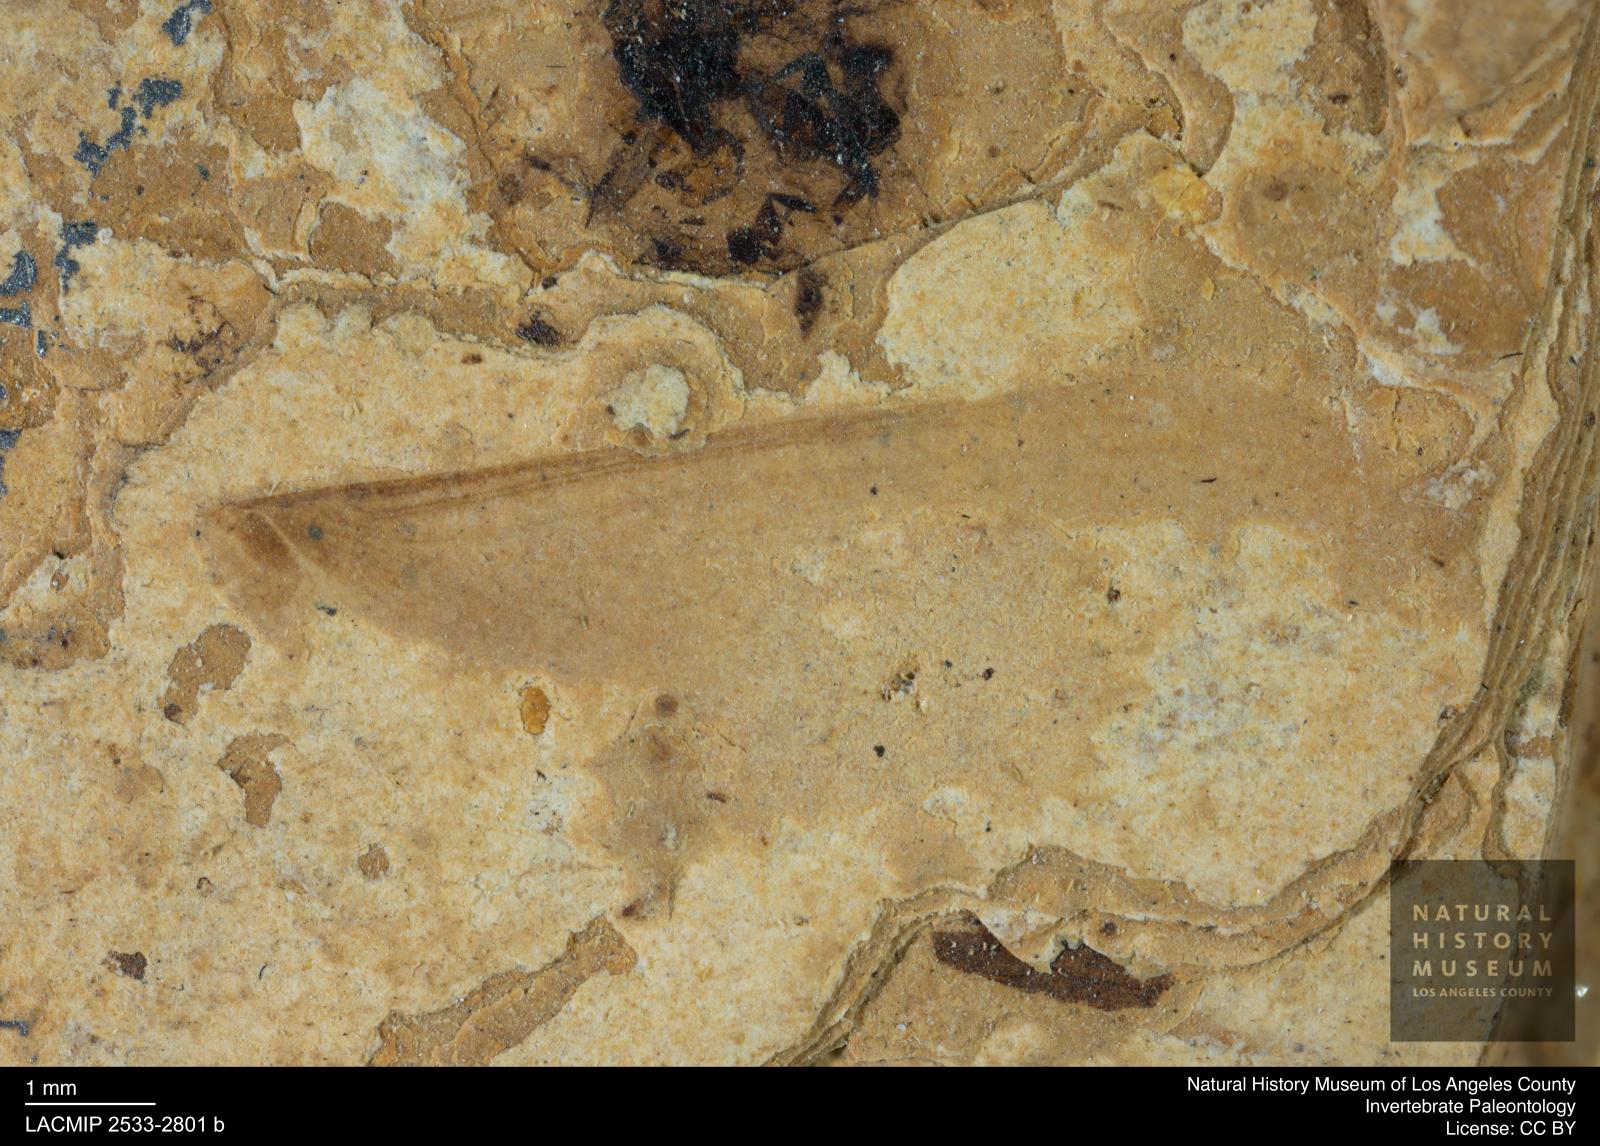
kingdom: Animalia
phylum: Arthropoda
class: Insecta
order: Blattodea
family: Kalotermitidae
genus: Kalotermes
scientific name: Kalotermes rhenanus
